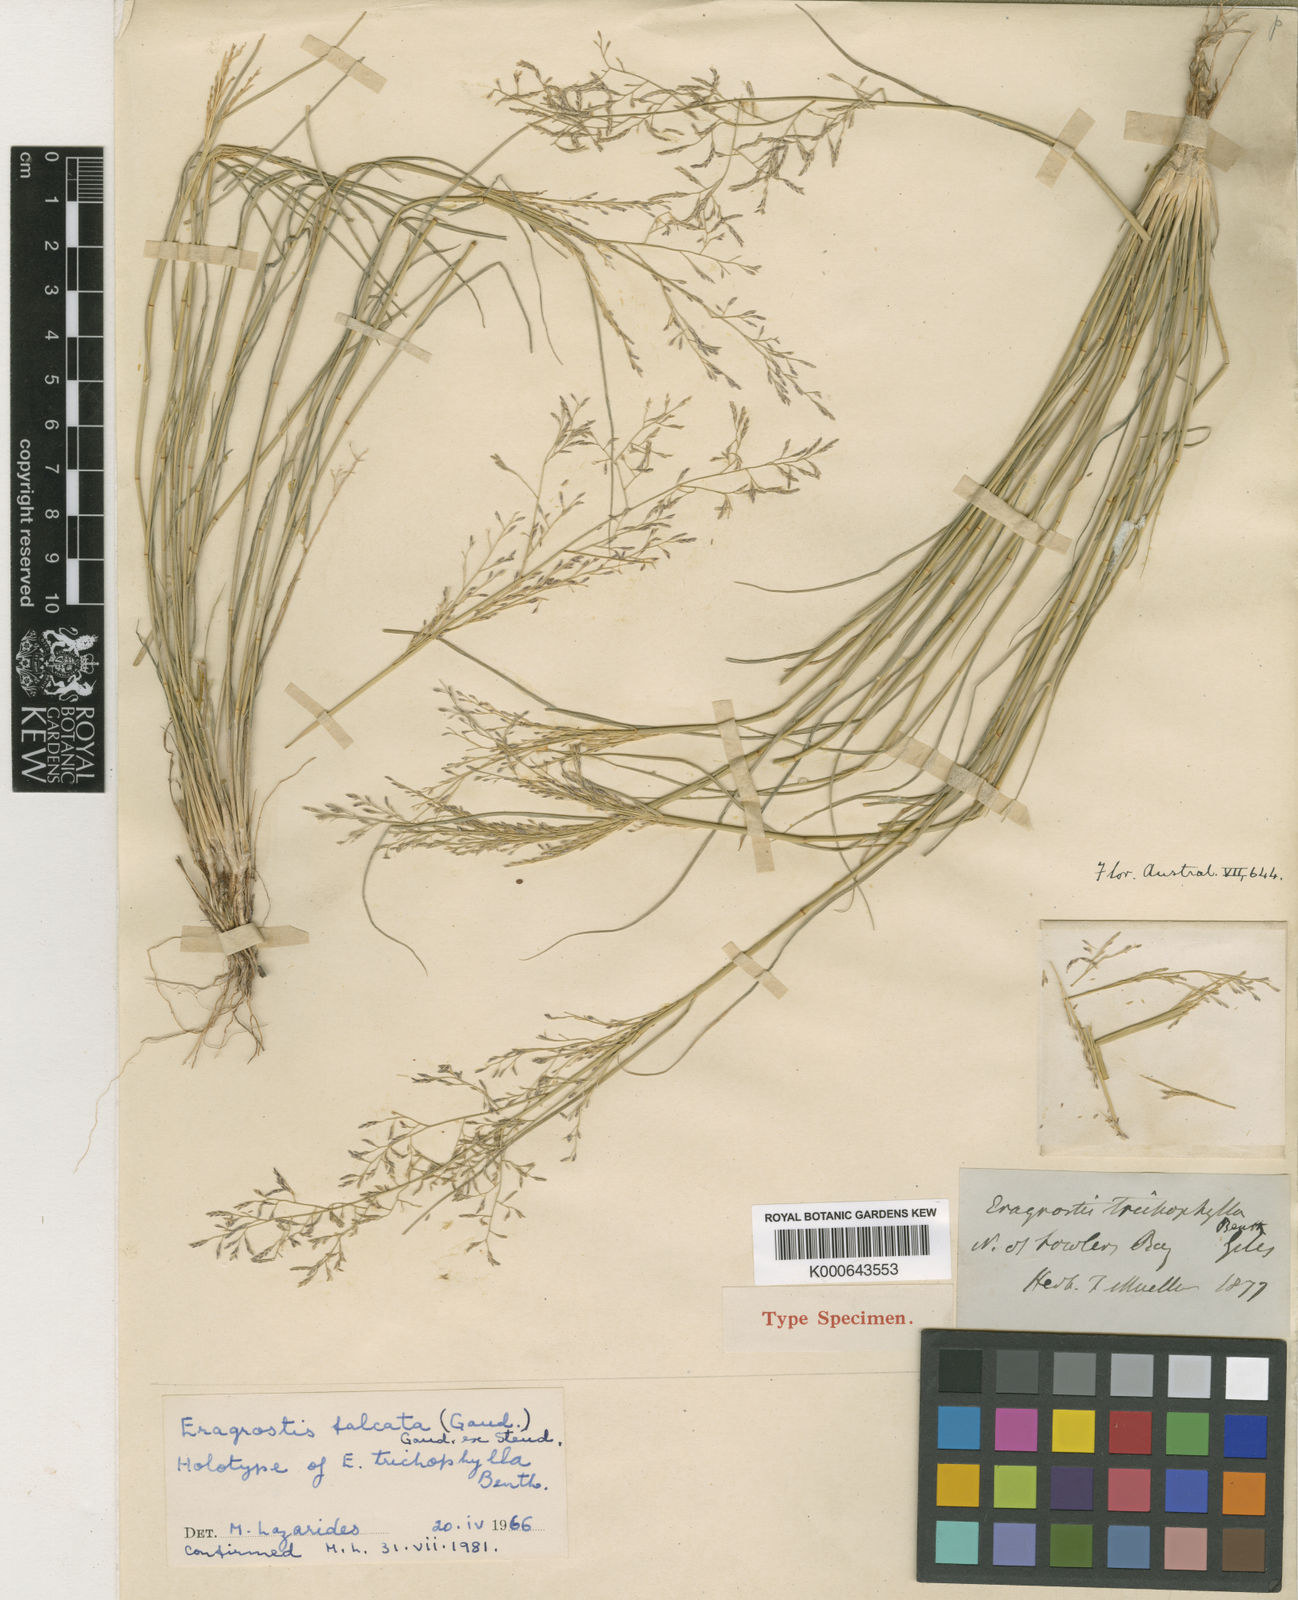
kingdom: Plantae
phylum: Tracheophyta
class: Liliopsida
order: Poales
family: Poaceae
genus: Eragrostis
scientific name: Eragrostis falcata
